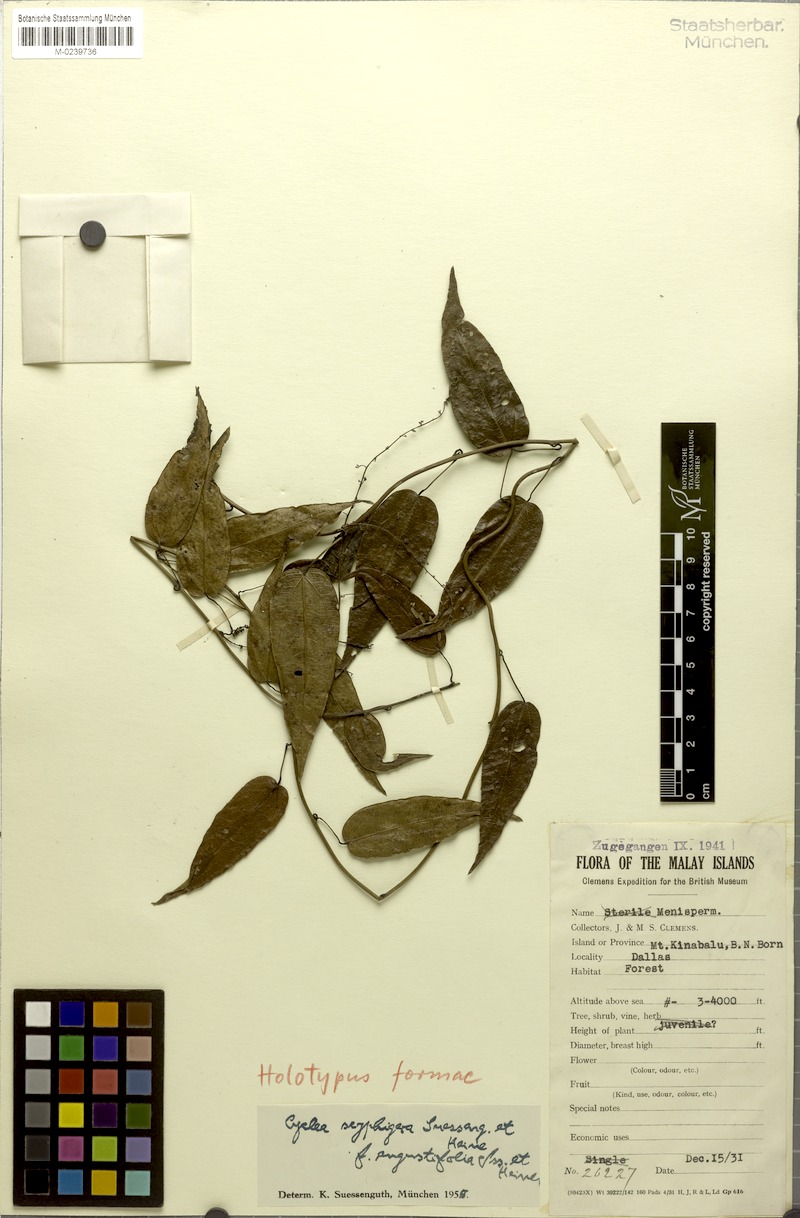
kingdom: Plantae
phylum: Tracheophyta
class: Magnoliopsida
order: Ranunculales
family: Menispermaceae
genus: Cyclea
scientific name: Cyclea elegans
